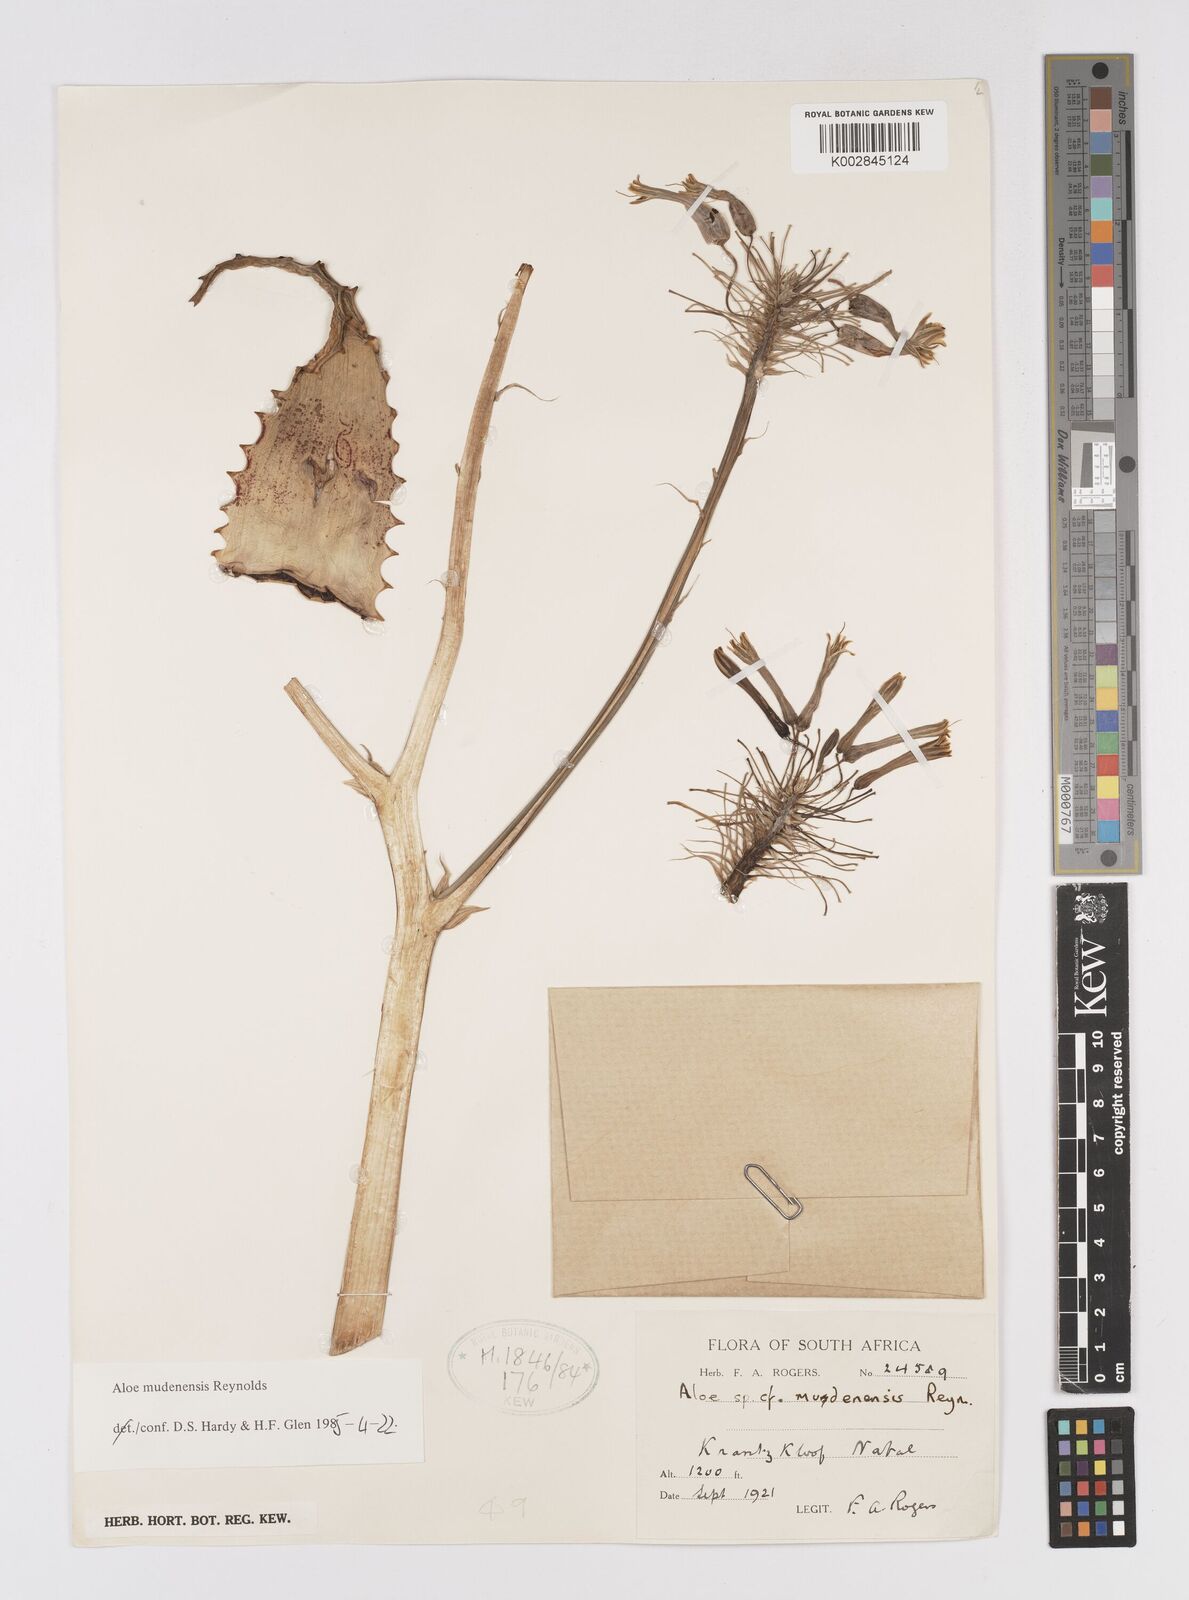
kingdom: Plantae
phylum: Tracheophyta
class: Liliopsida
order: Asparagales
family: Asphodelaceae
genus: Aloe
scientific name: Aloe mudenensis
